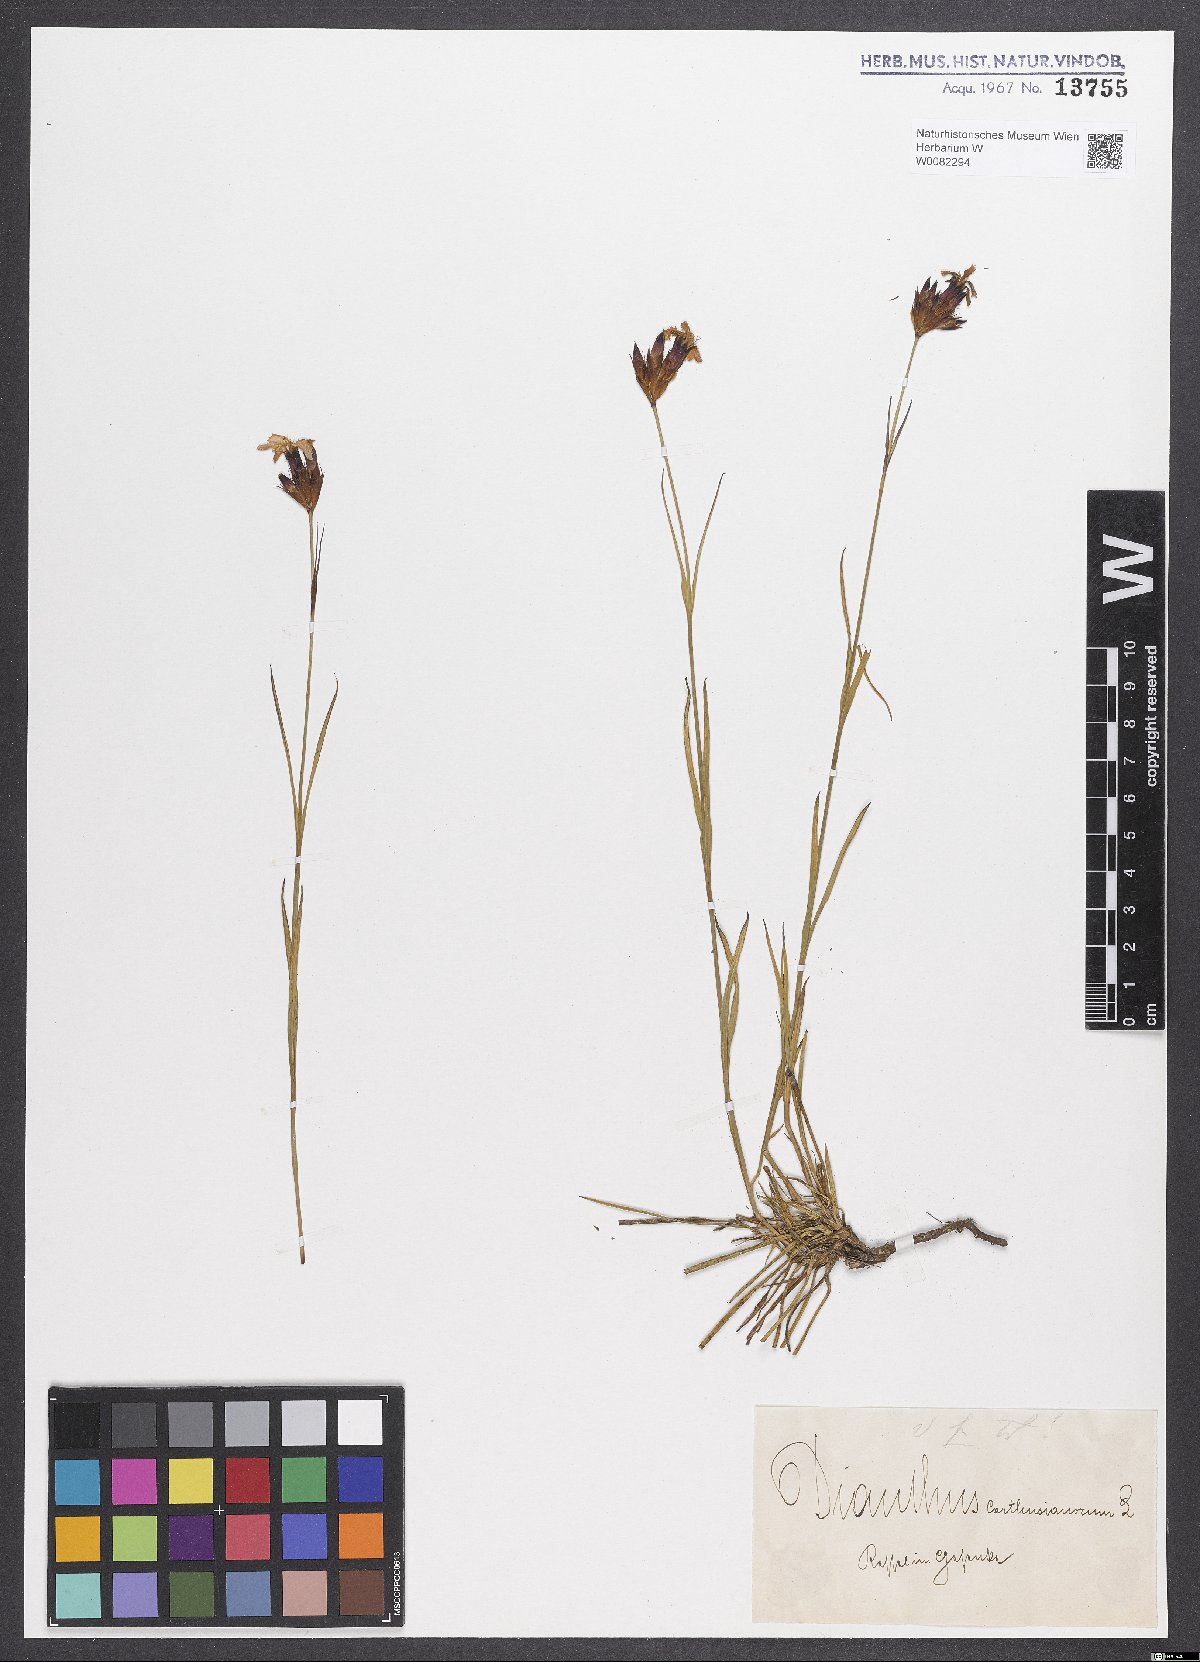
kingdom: Plantae
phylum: Tracheophyta
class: Magnoliopsida
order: Caryophyllales
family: Caryophyllaceae
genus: Dianthus
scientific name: Dianthus carthusianorum
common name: Carthusian pink
